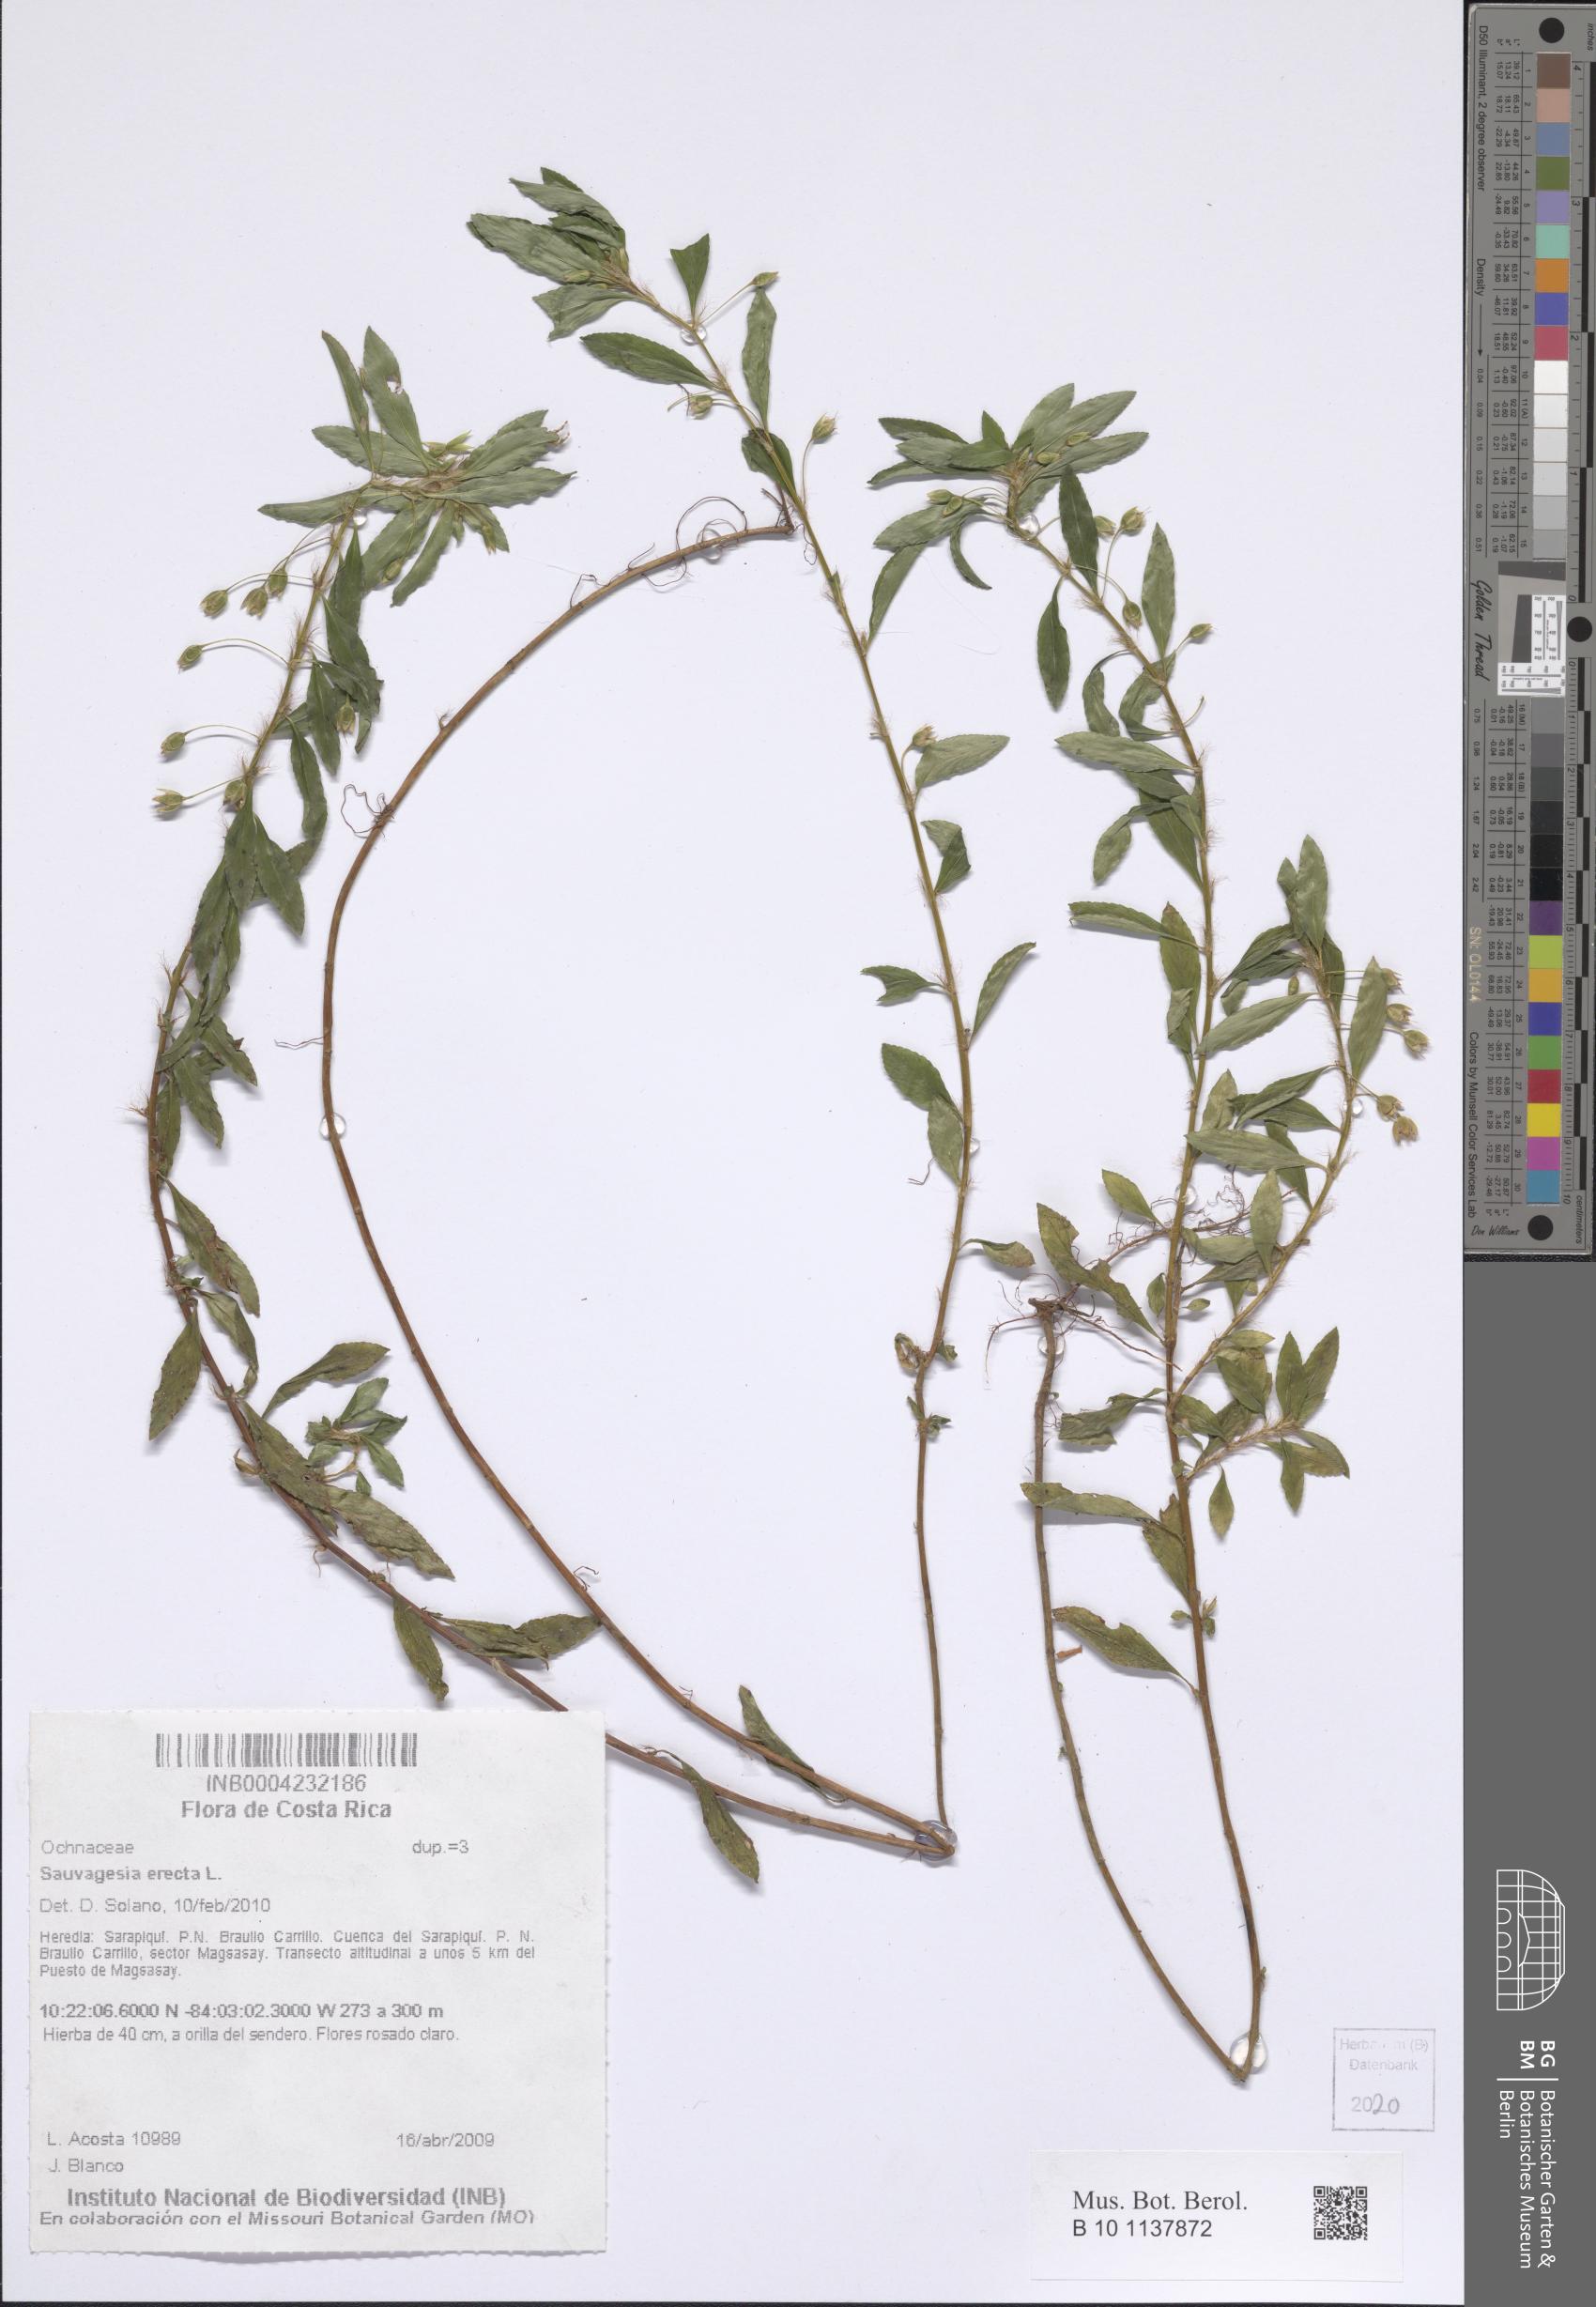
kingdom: Plantae
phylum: Tracheophyta
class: Magnoliopsida
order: Malpighiales
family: Ochnaceae
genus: Sauvagesia
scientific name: Sauvagesia erecta
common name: Creole tea
